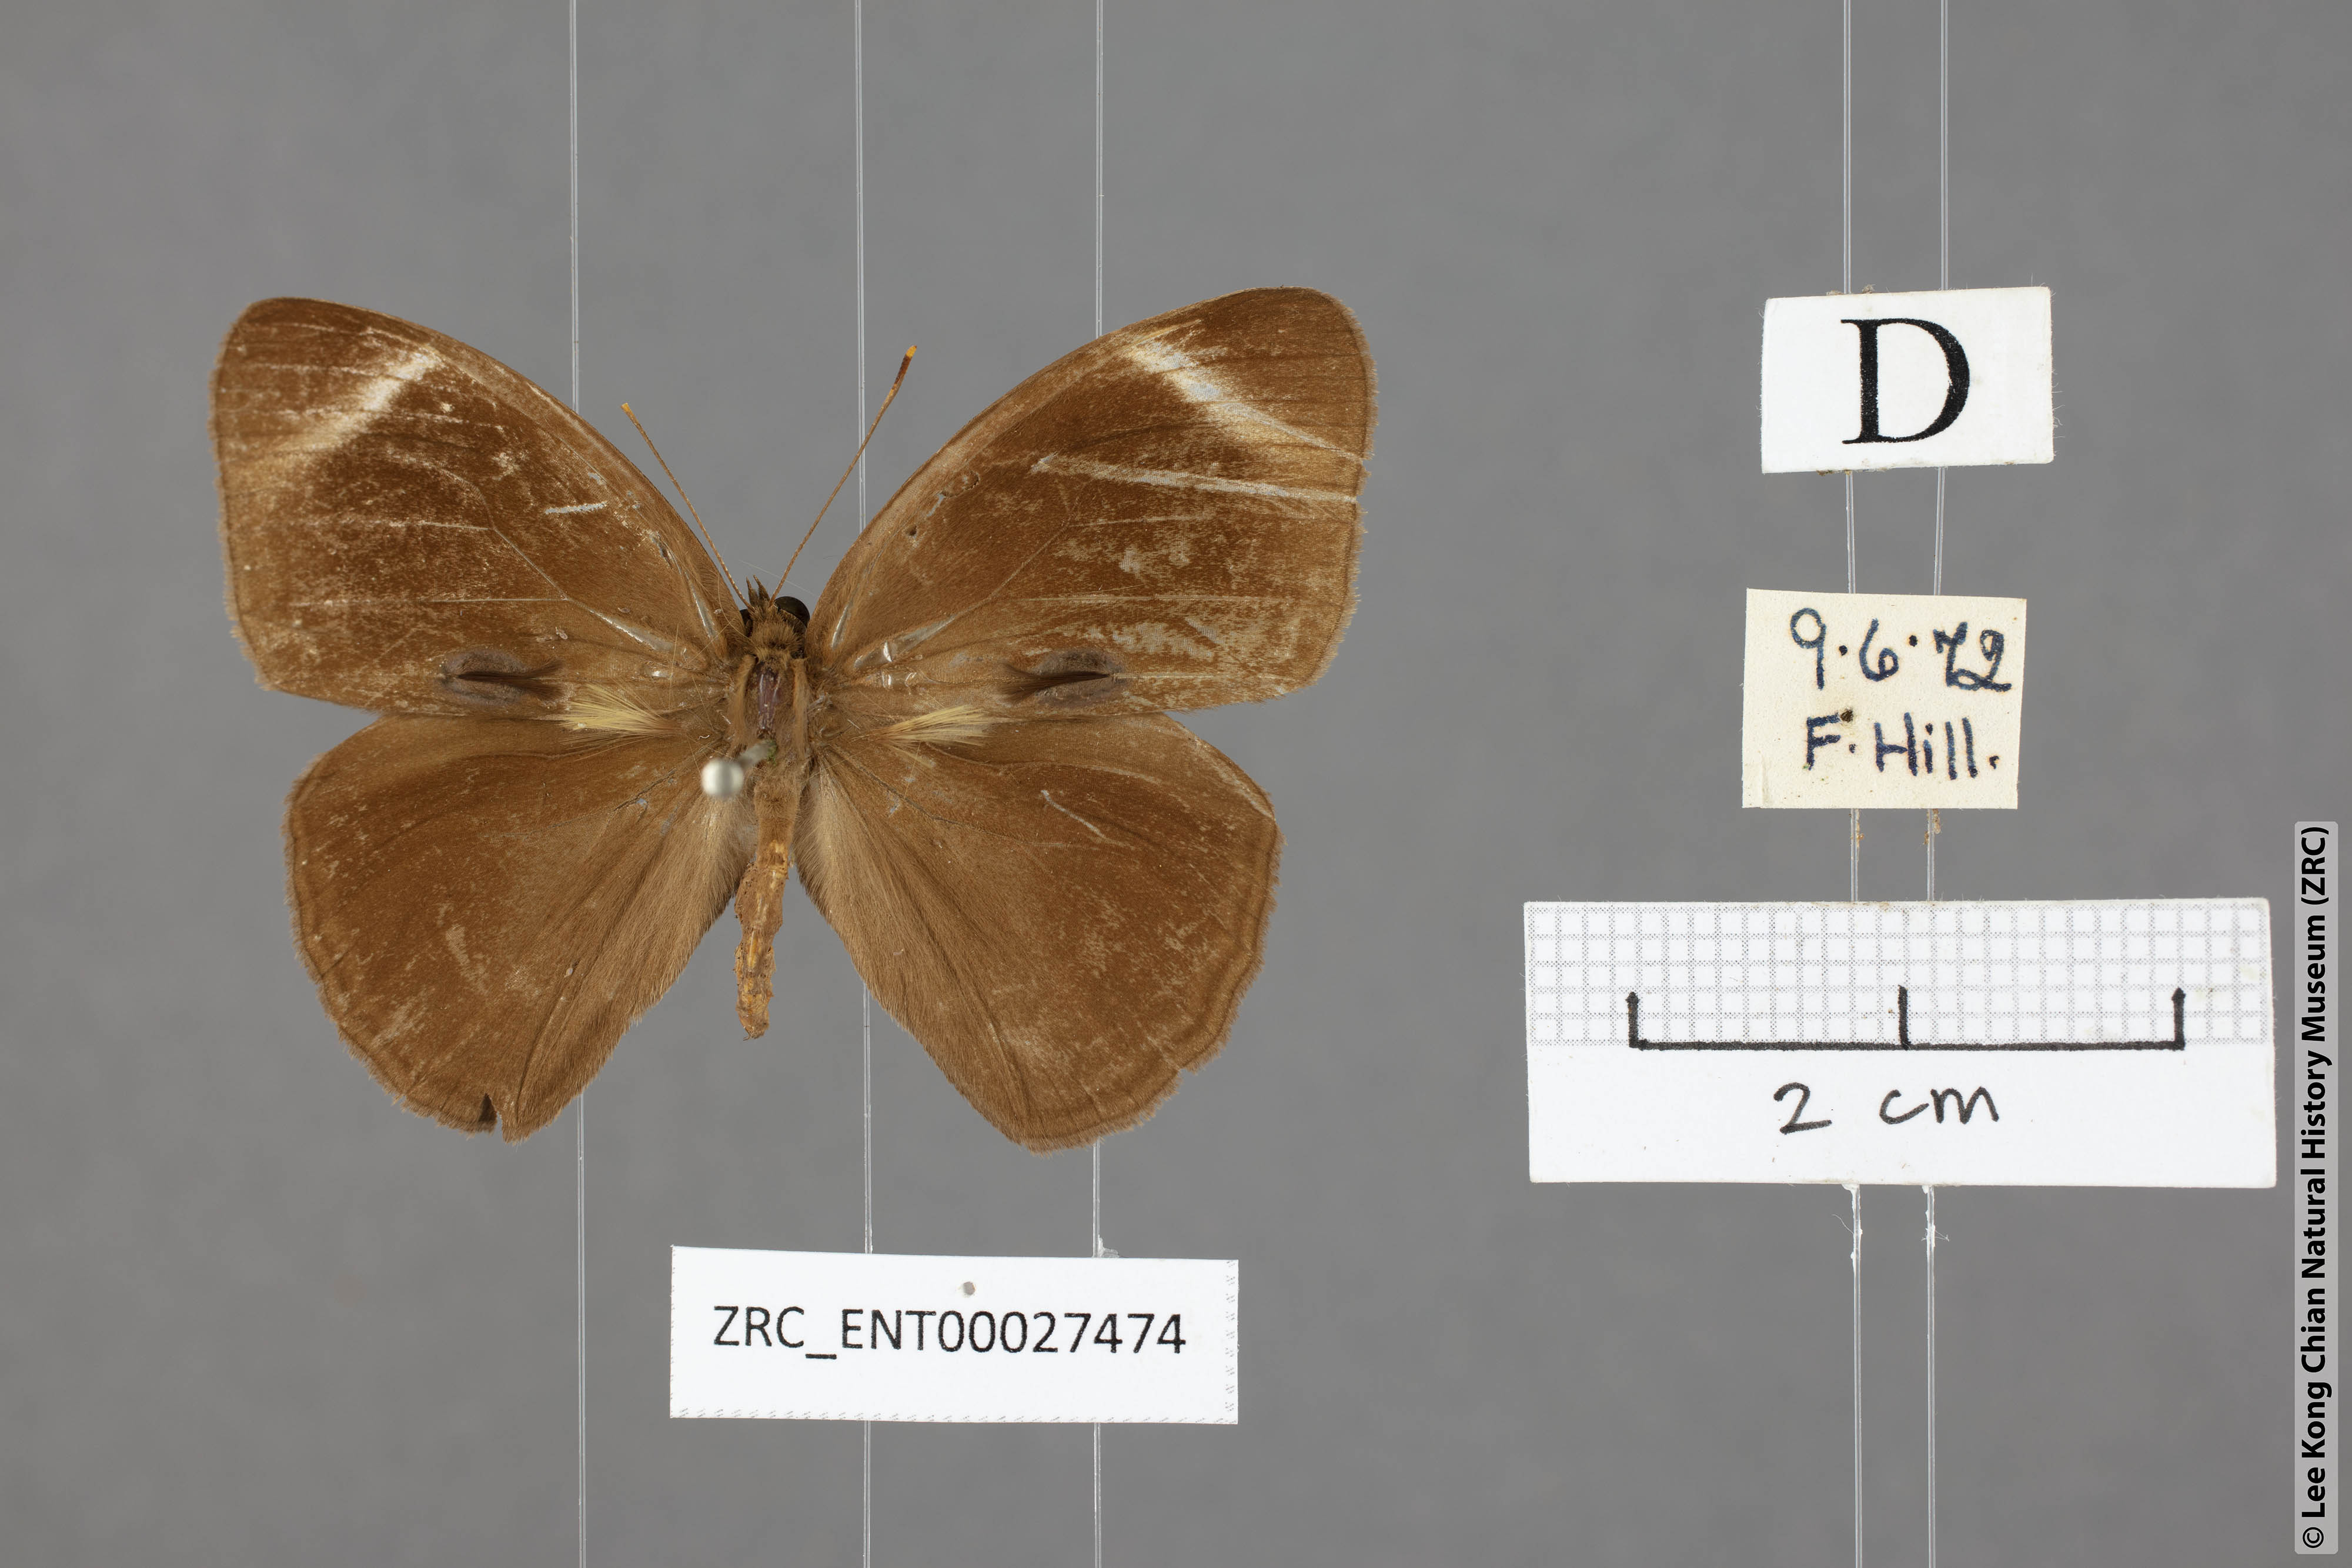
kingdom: Animalia
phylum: Arthropoda
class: Insecta
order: Lepidoptera
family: Nymphalidae
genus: Mycalesis
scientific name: Mycalesis anaxias
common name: White-bar bushbrown
